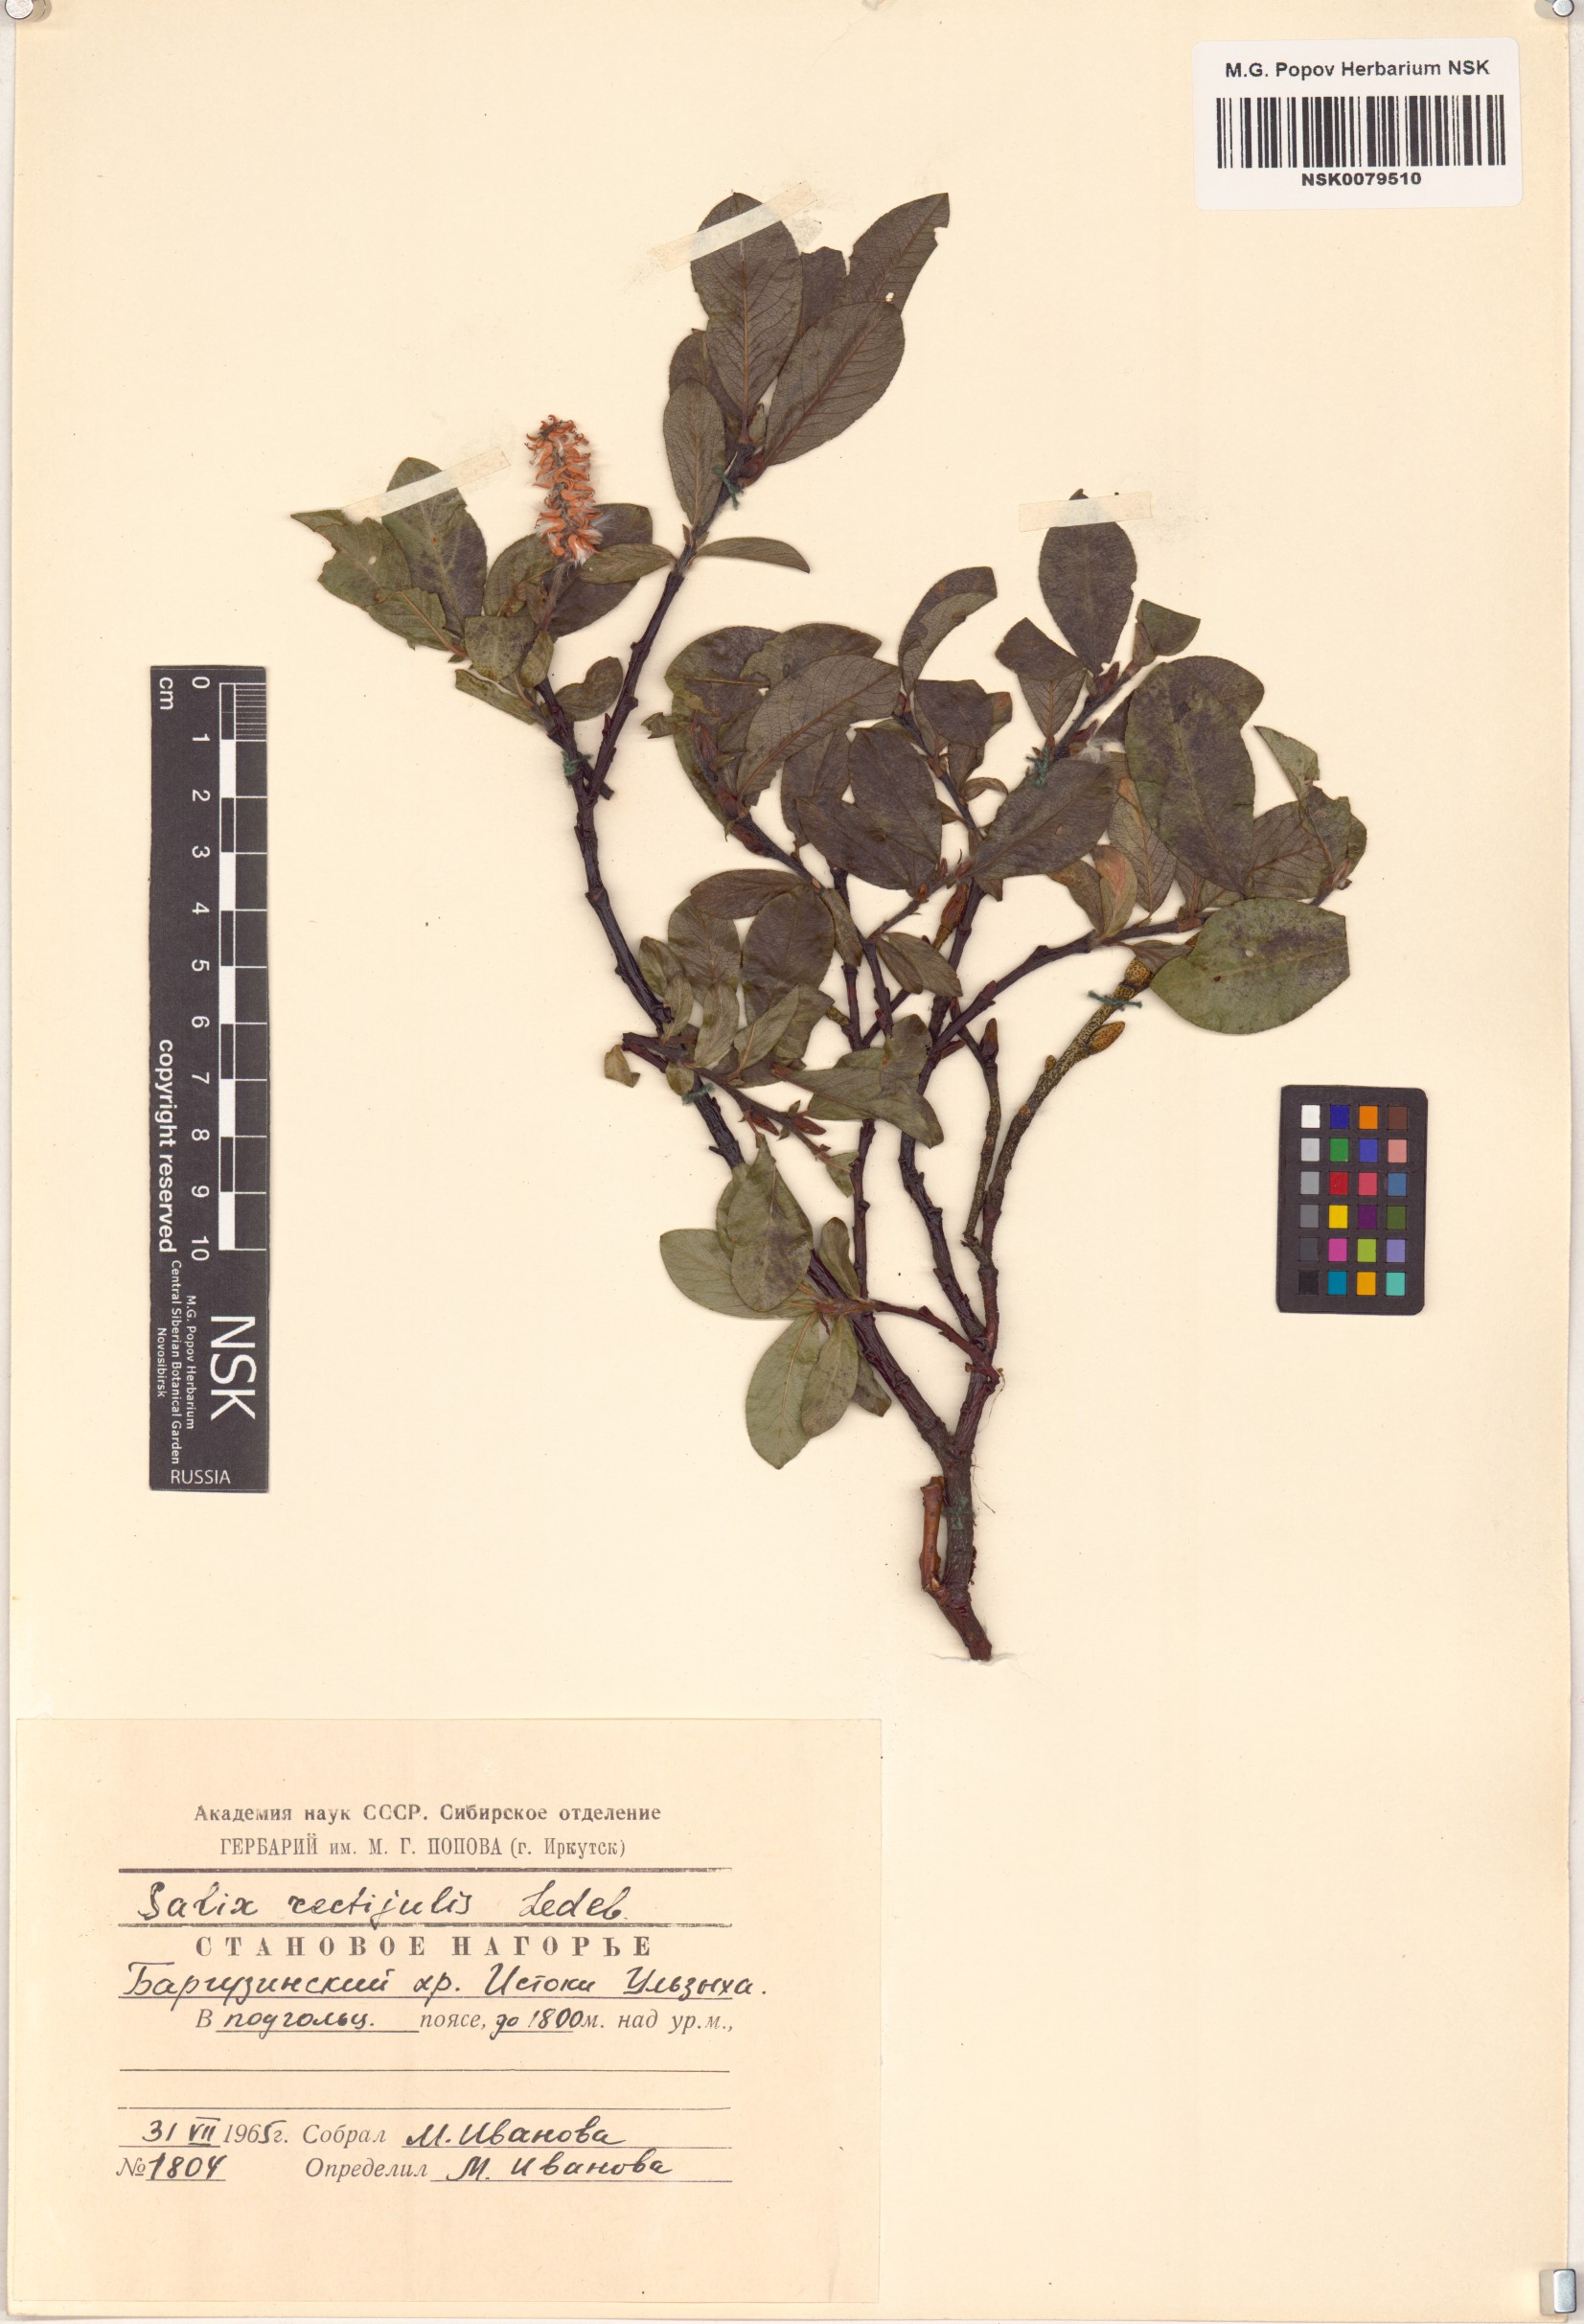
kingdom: Plantae
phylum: Tracheophyta
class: Magnoliopsida
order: Malpighiales
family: Salicaceae
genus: Salix
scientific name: Salix rectijulis
